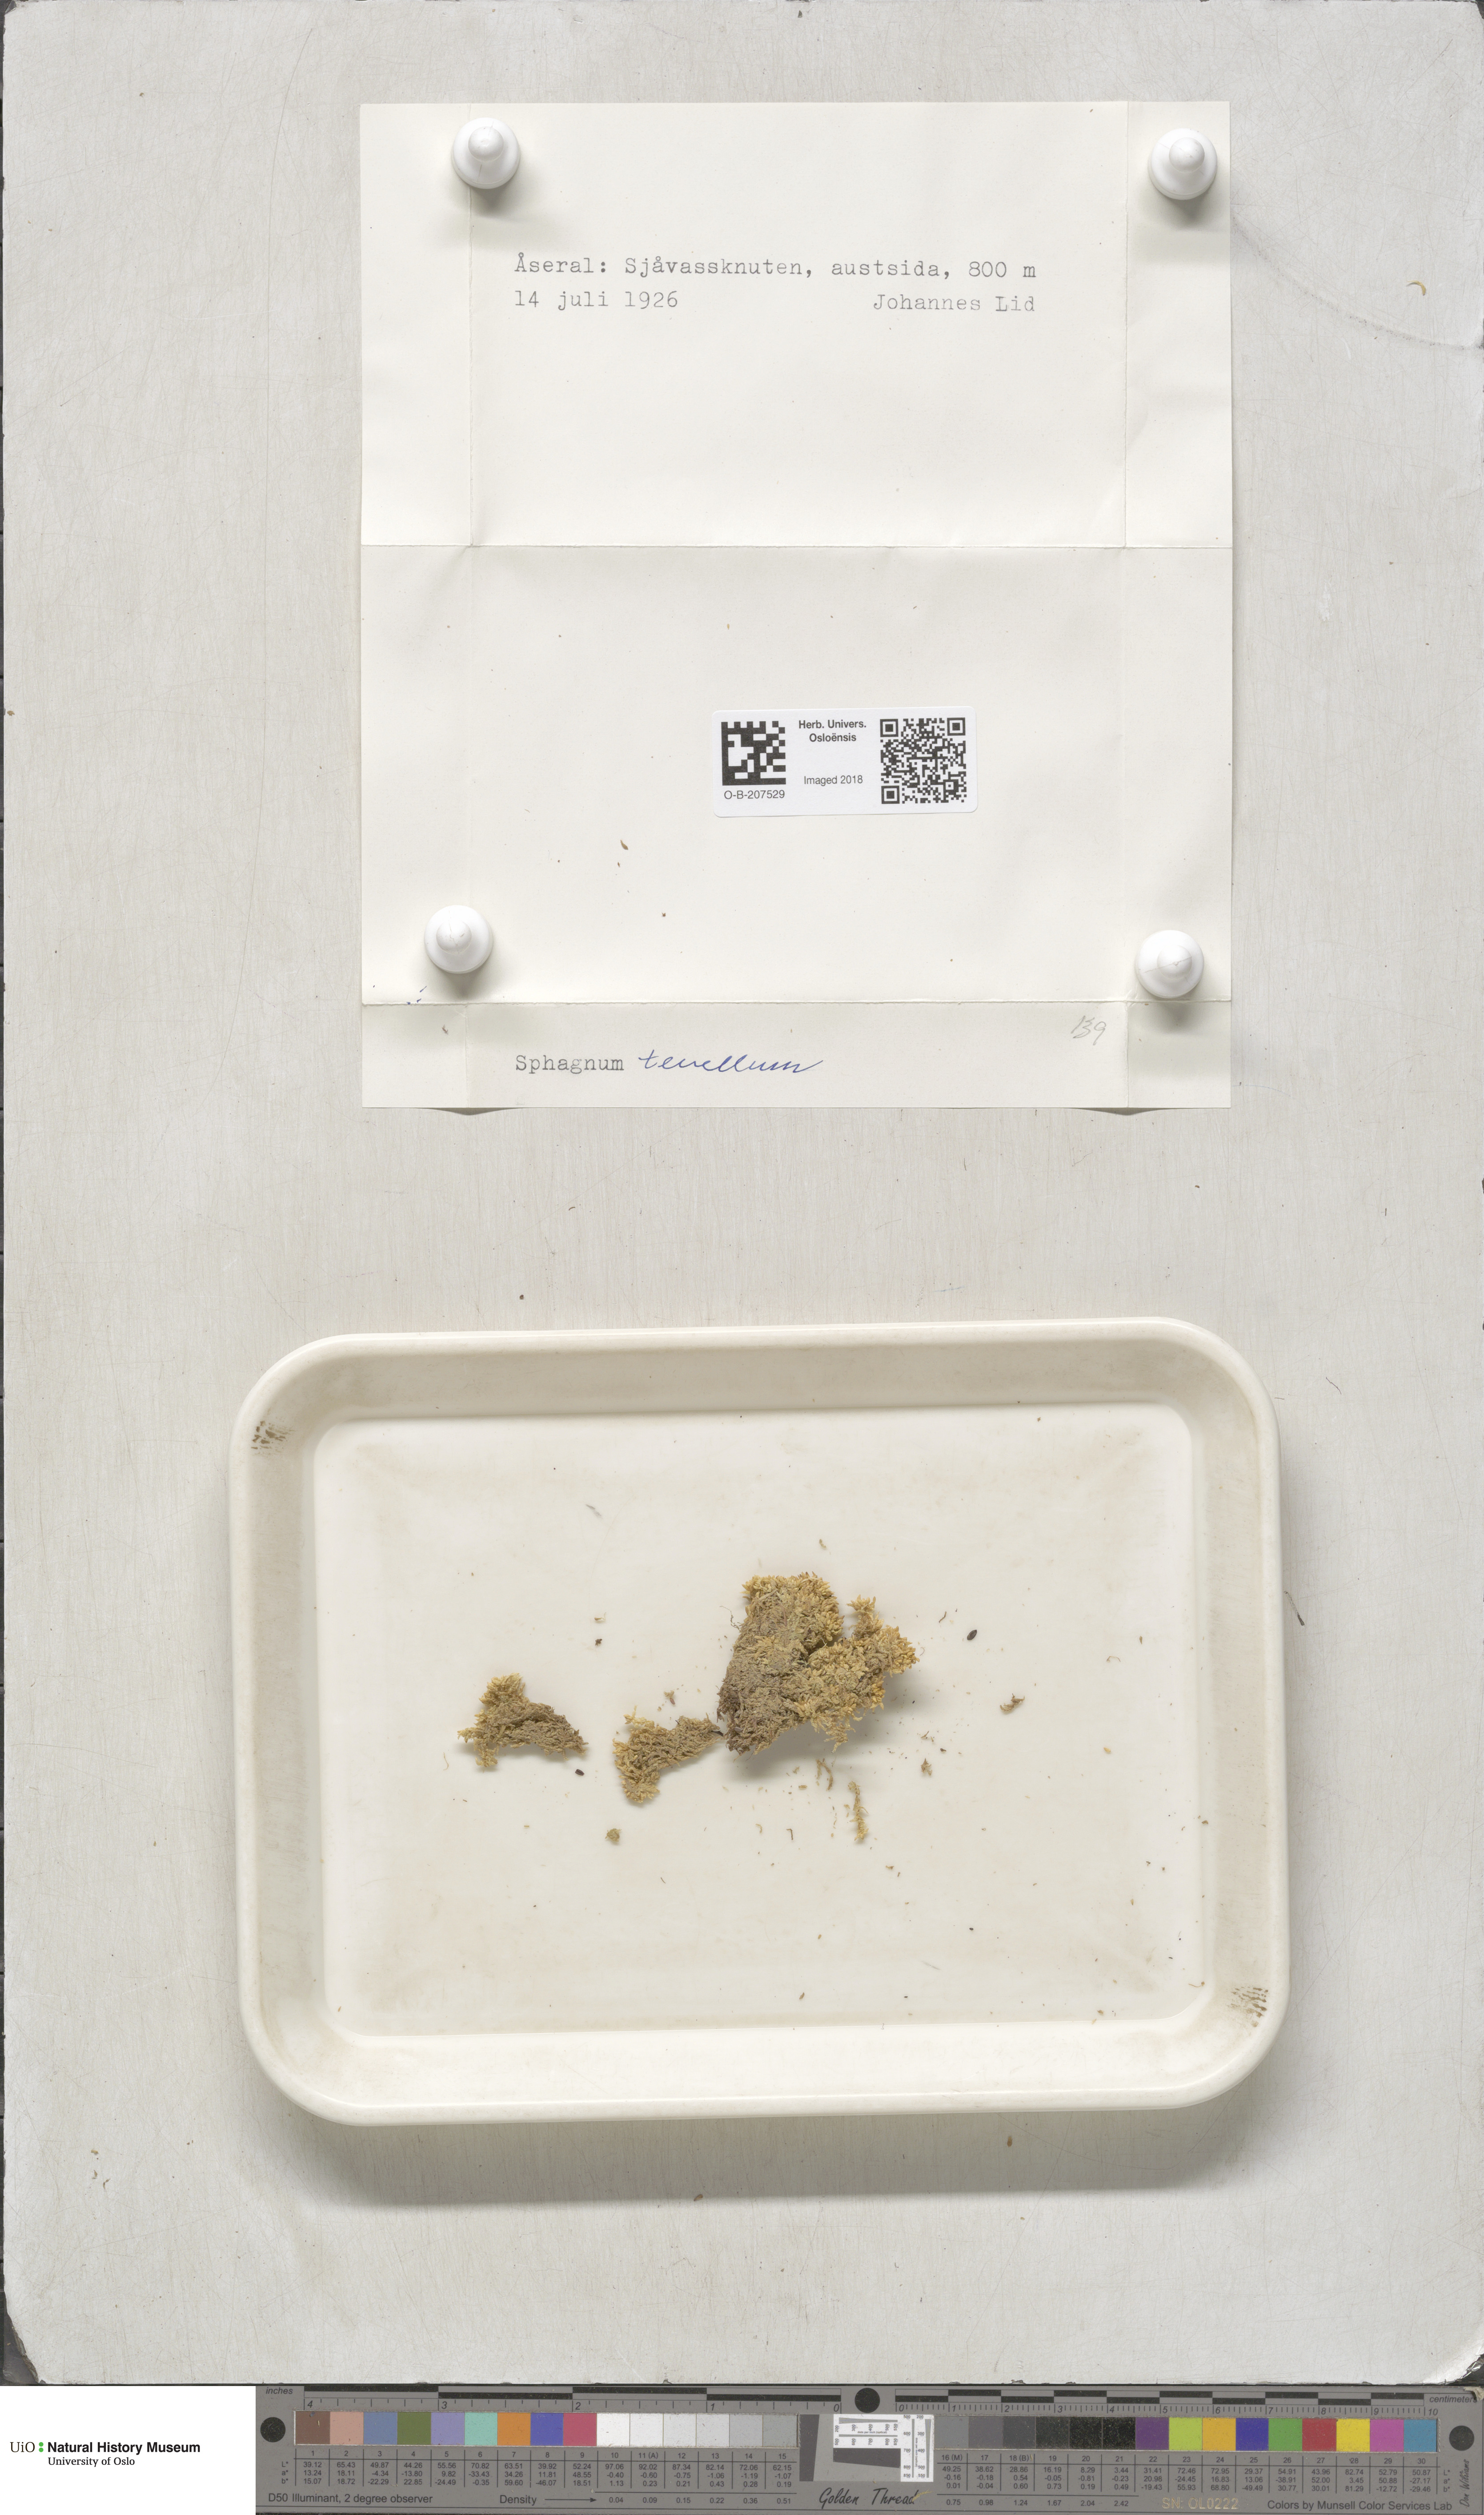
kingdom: Plantae
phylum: Bryophyta
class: Sphagnopsida
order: Sphagnales
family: Sphagnaceae
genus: Sphagnum
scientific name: Sphagnum tenellum
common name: Soft bog-moss
